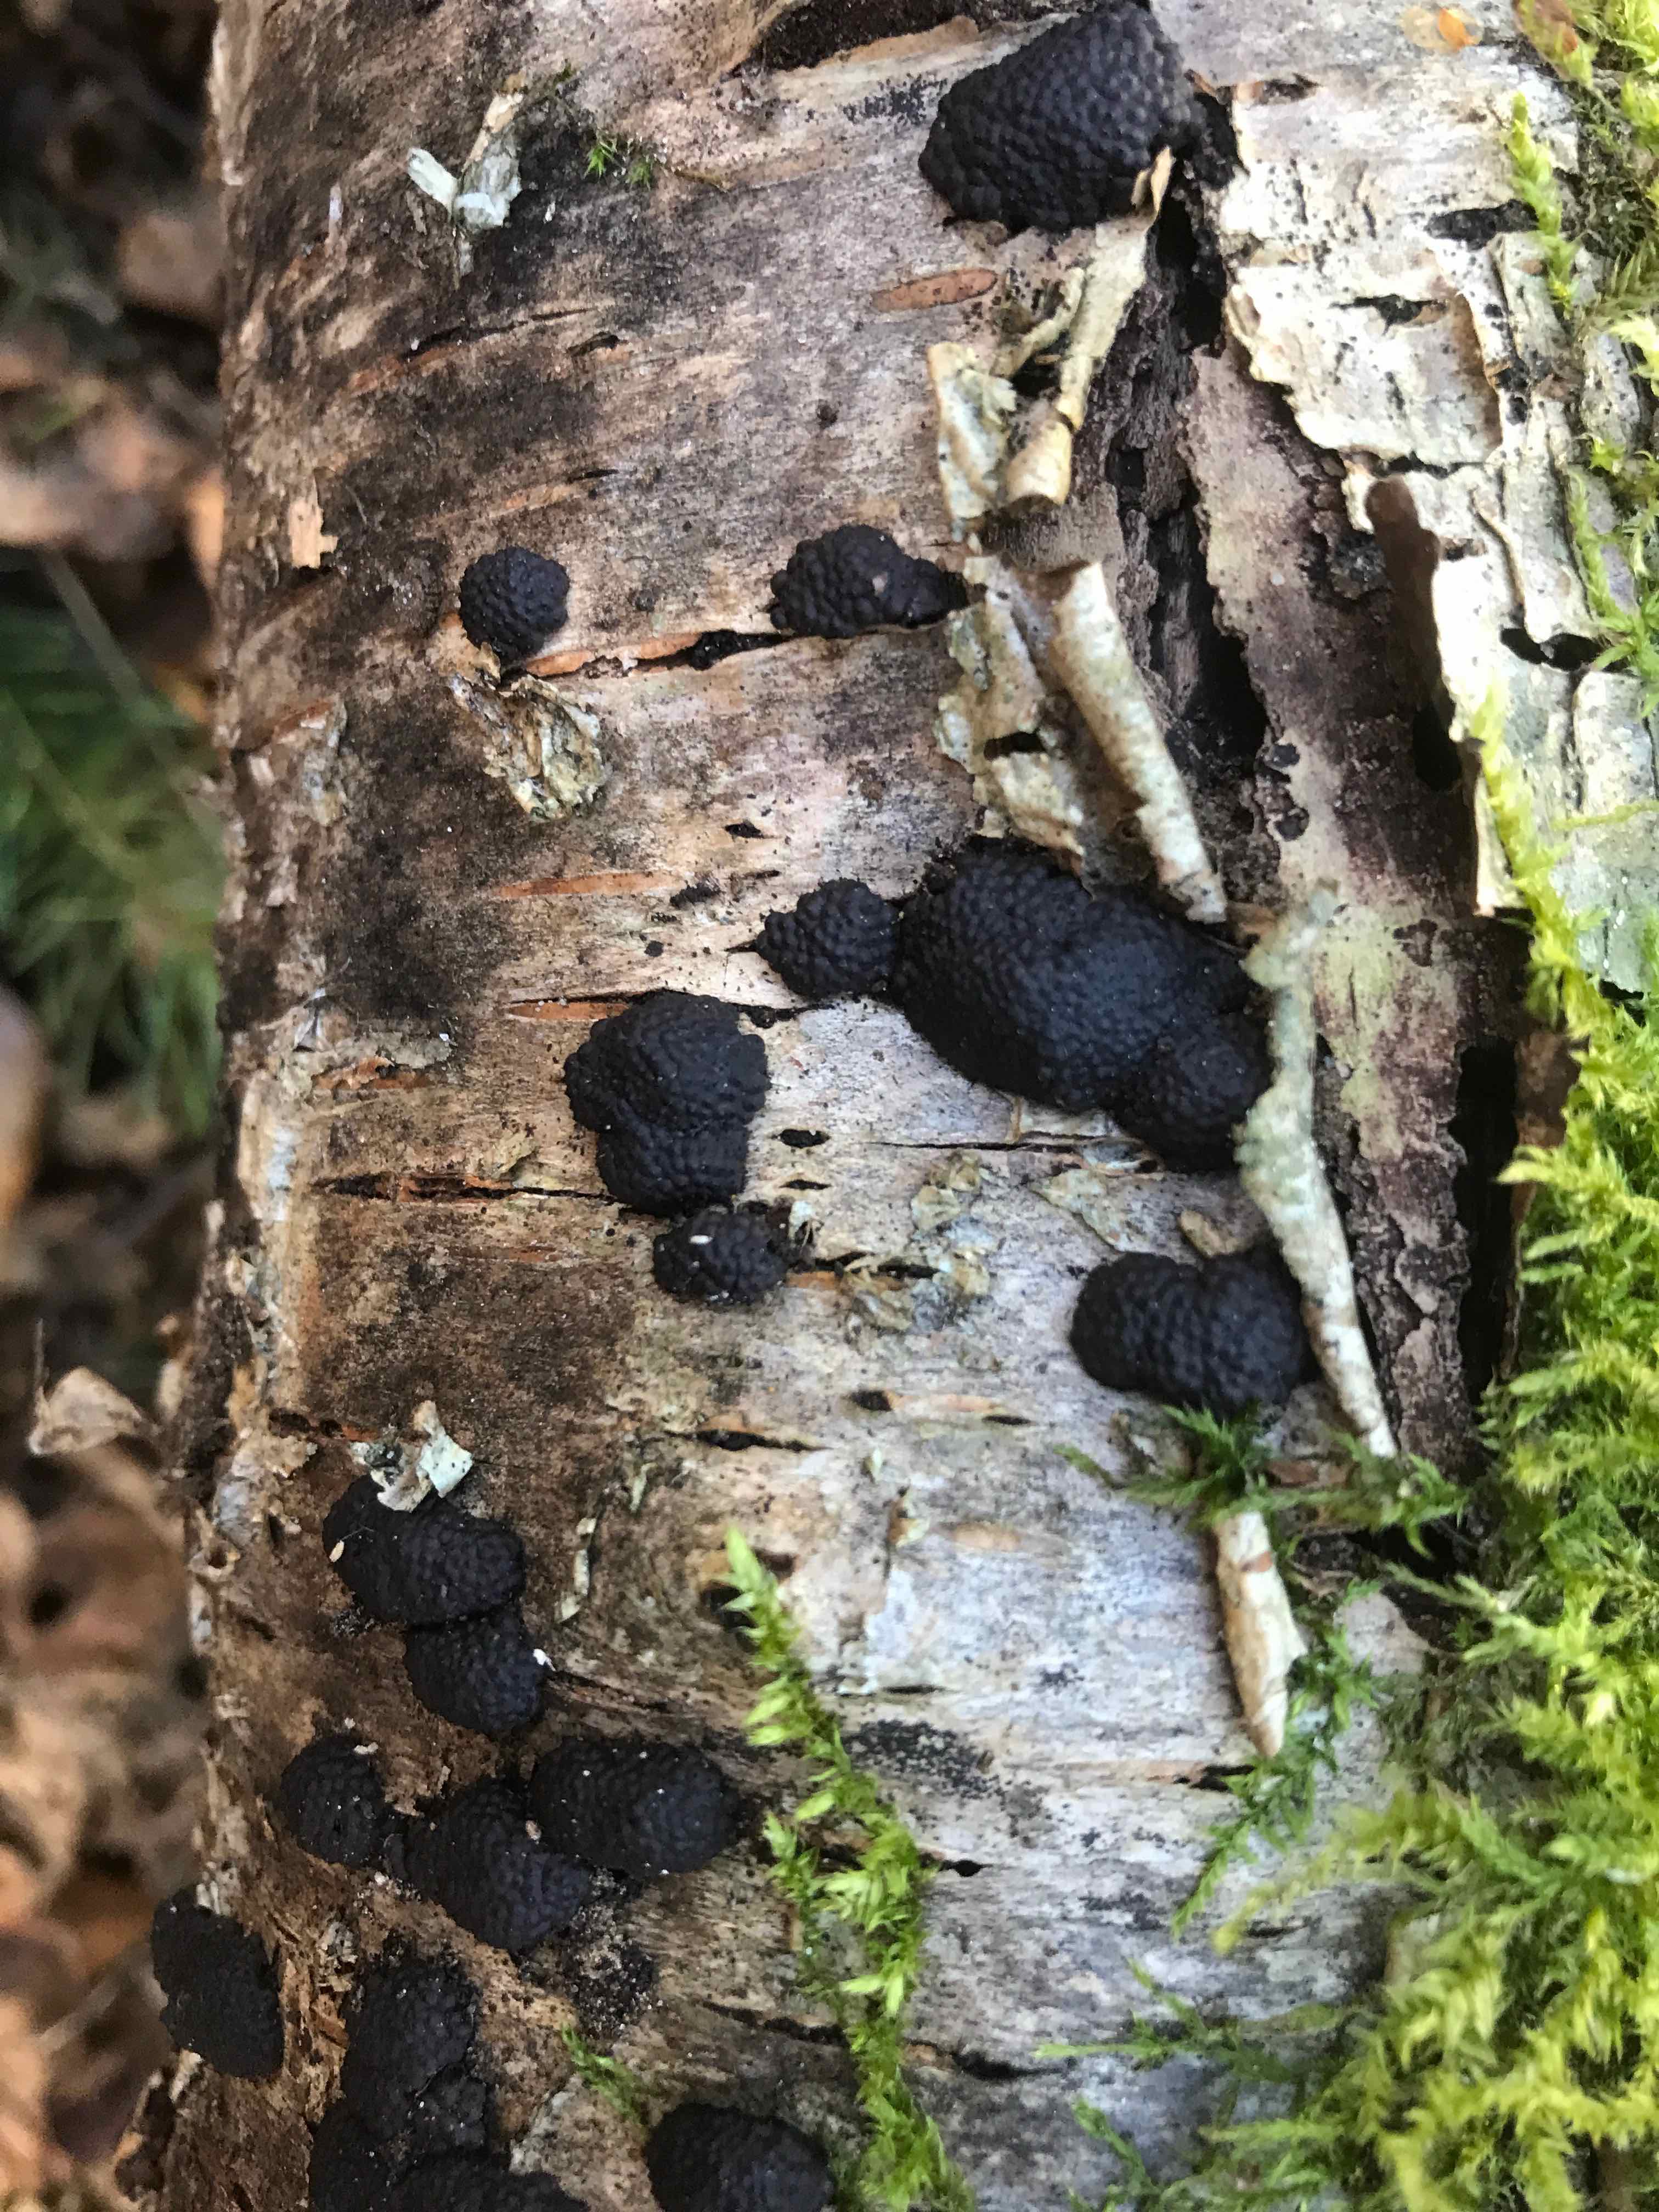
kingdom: Fungi
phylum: Ascomycota
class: Sordariomycetes
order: Xylariales
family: Hypoxylaceae
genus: Jackrogersella
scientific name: Jackrogersella multiformis
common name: foranderlig kulbær
